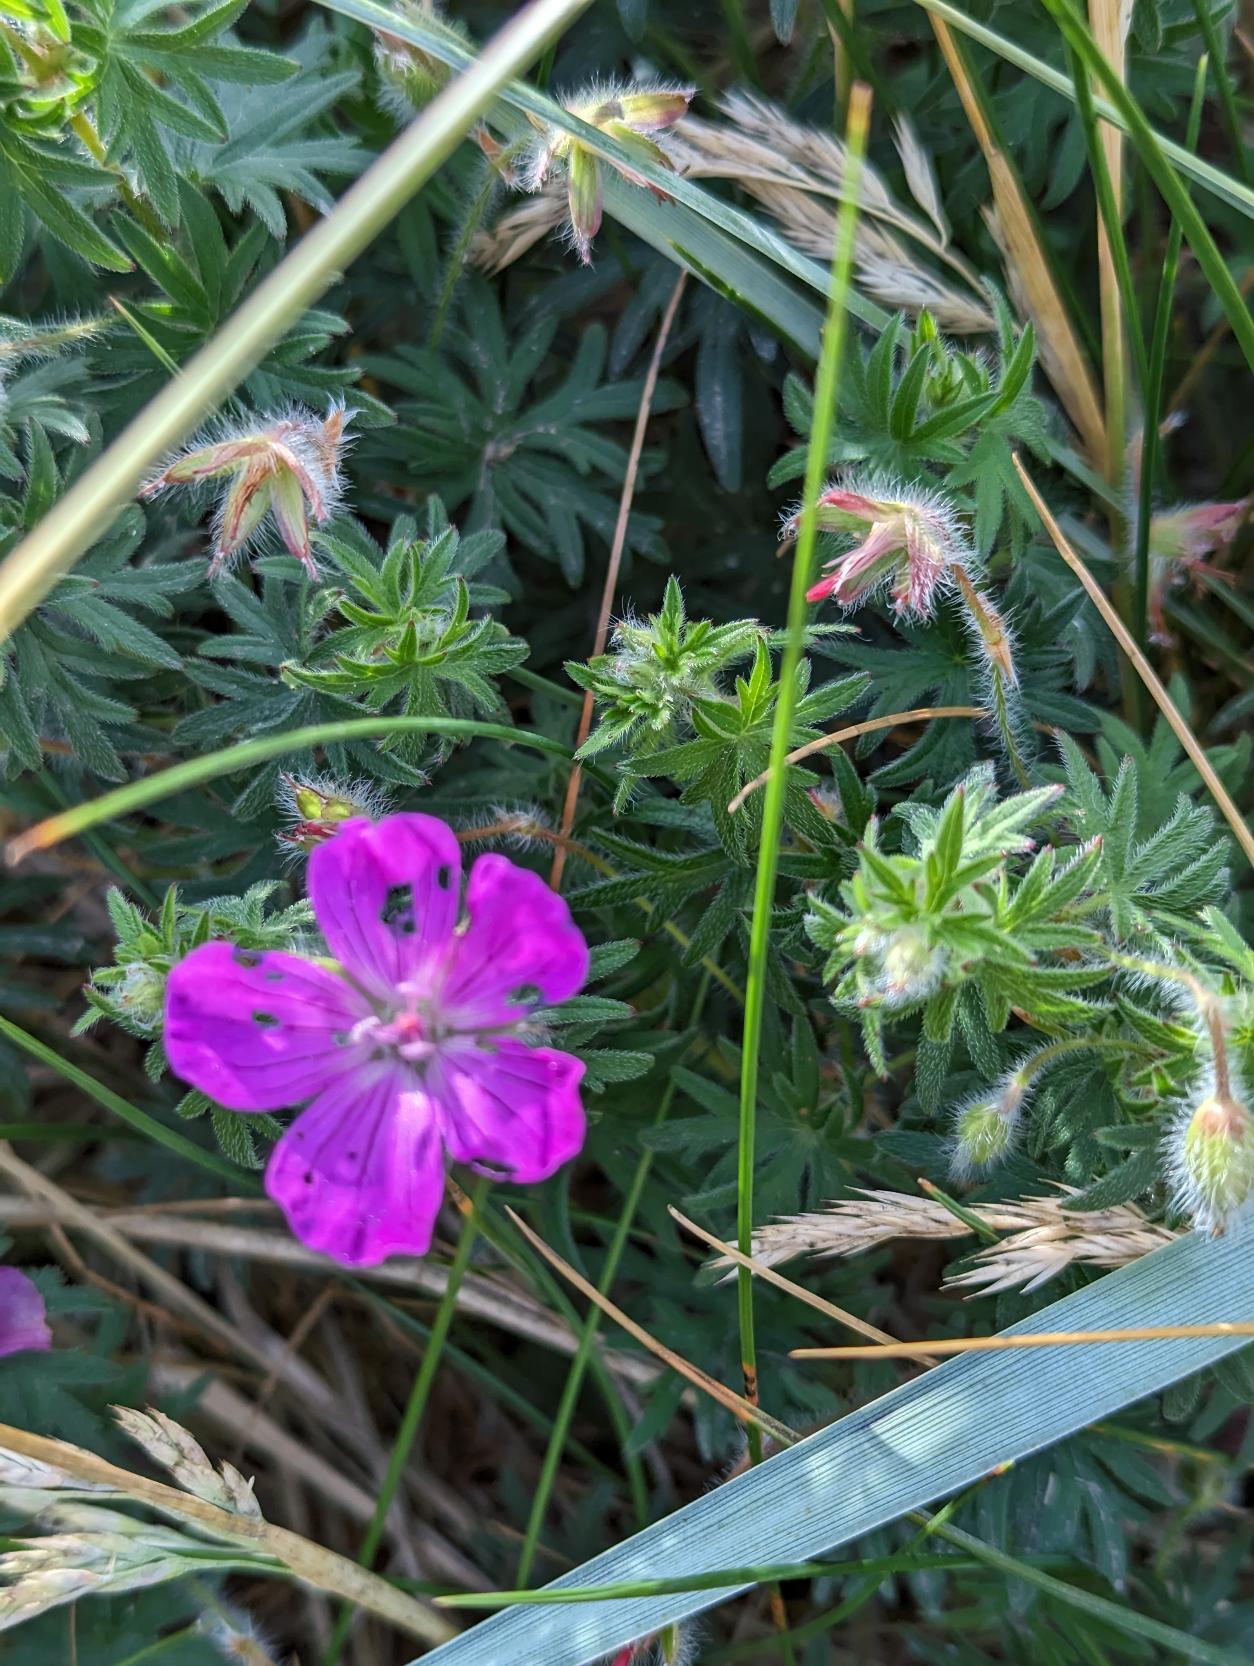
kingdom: Plantae
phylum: Tracheophyta
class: Magnoliopsida
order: Geraniales
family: Geraniaceae
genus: Geranium
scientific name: Geranium sanguineum
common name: Blodrød storkenæb
